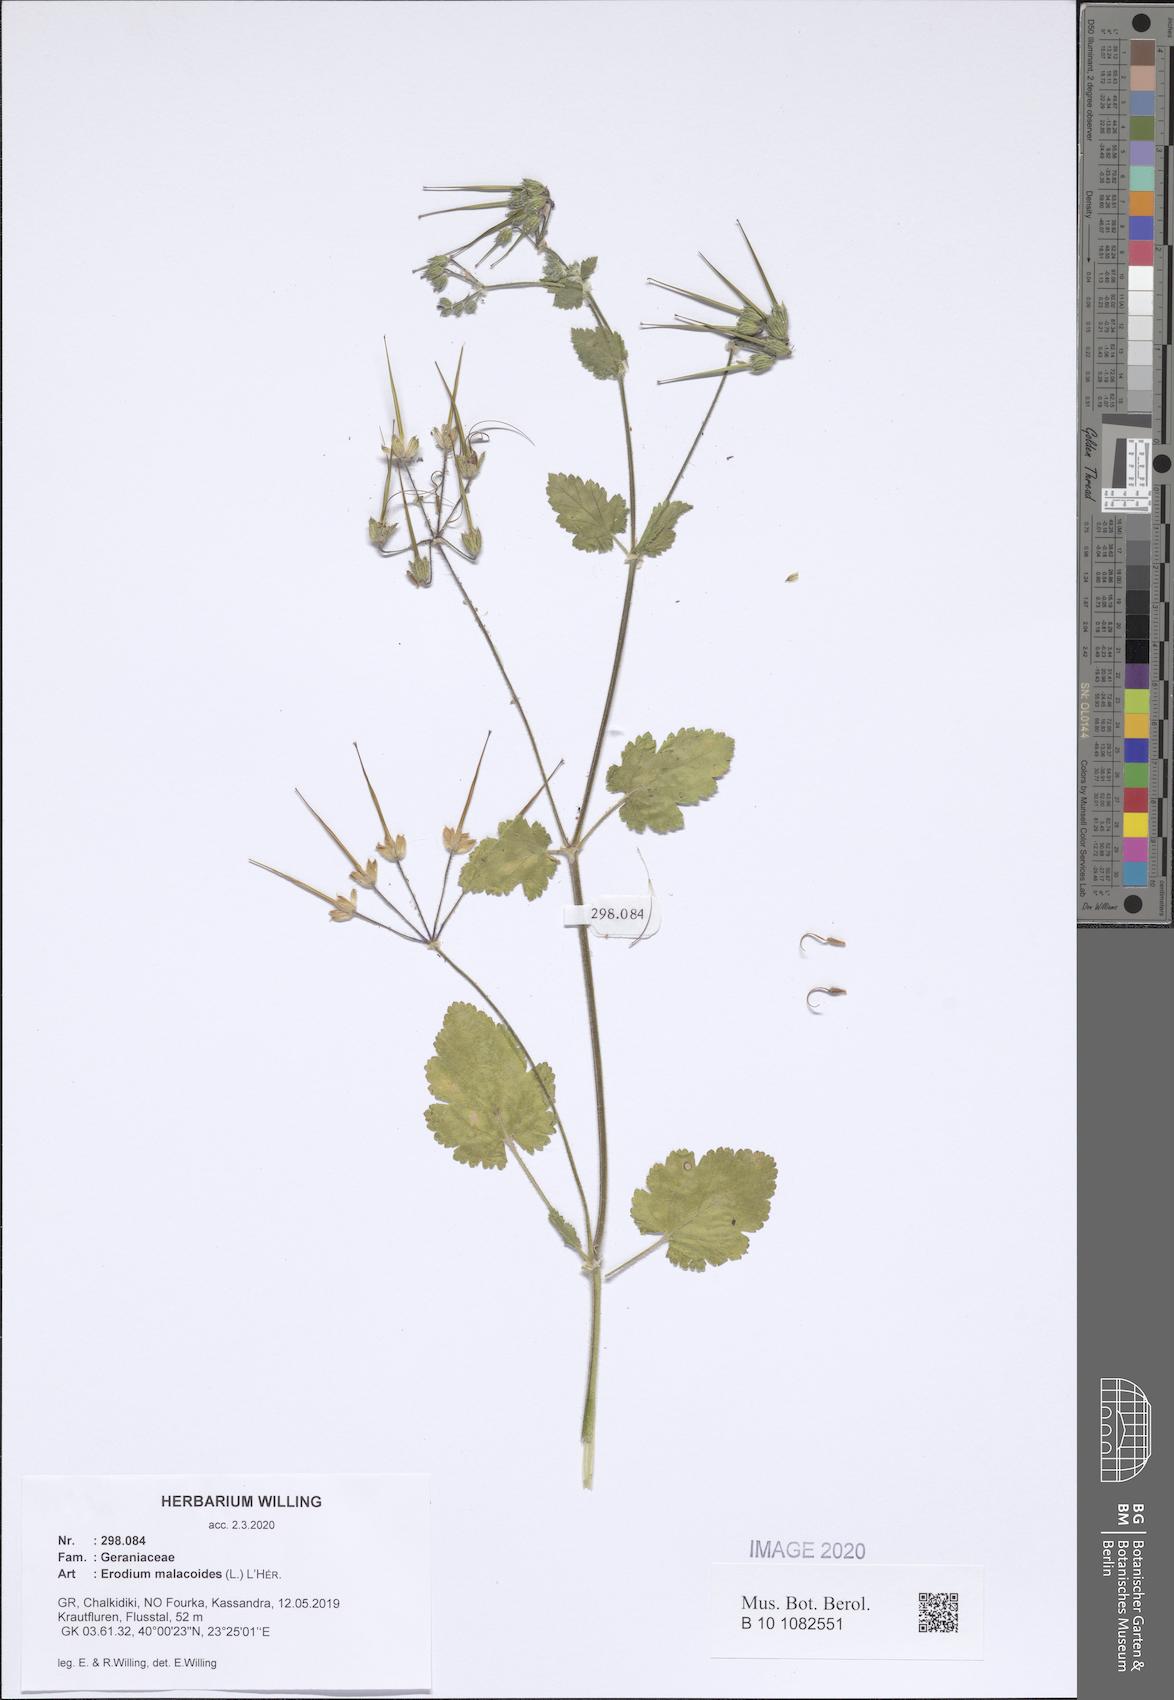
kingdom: Plantae
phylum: Tracheophyta
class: Magnoliopsida
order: Geraniales
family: Geraniaceae
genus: Erodium
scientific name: Erodium malacoides
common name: Soft stork's-bill
